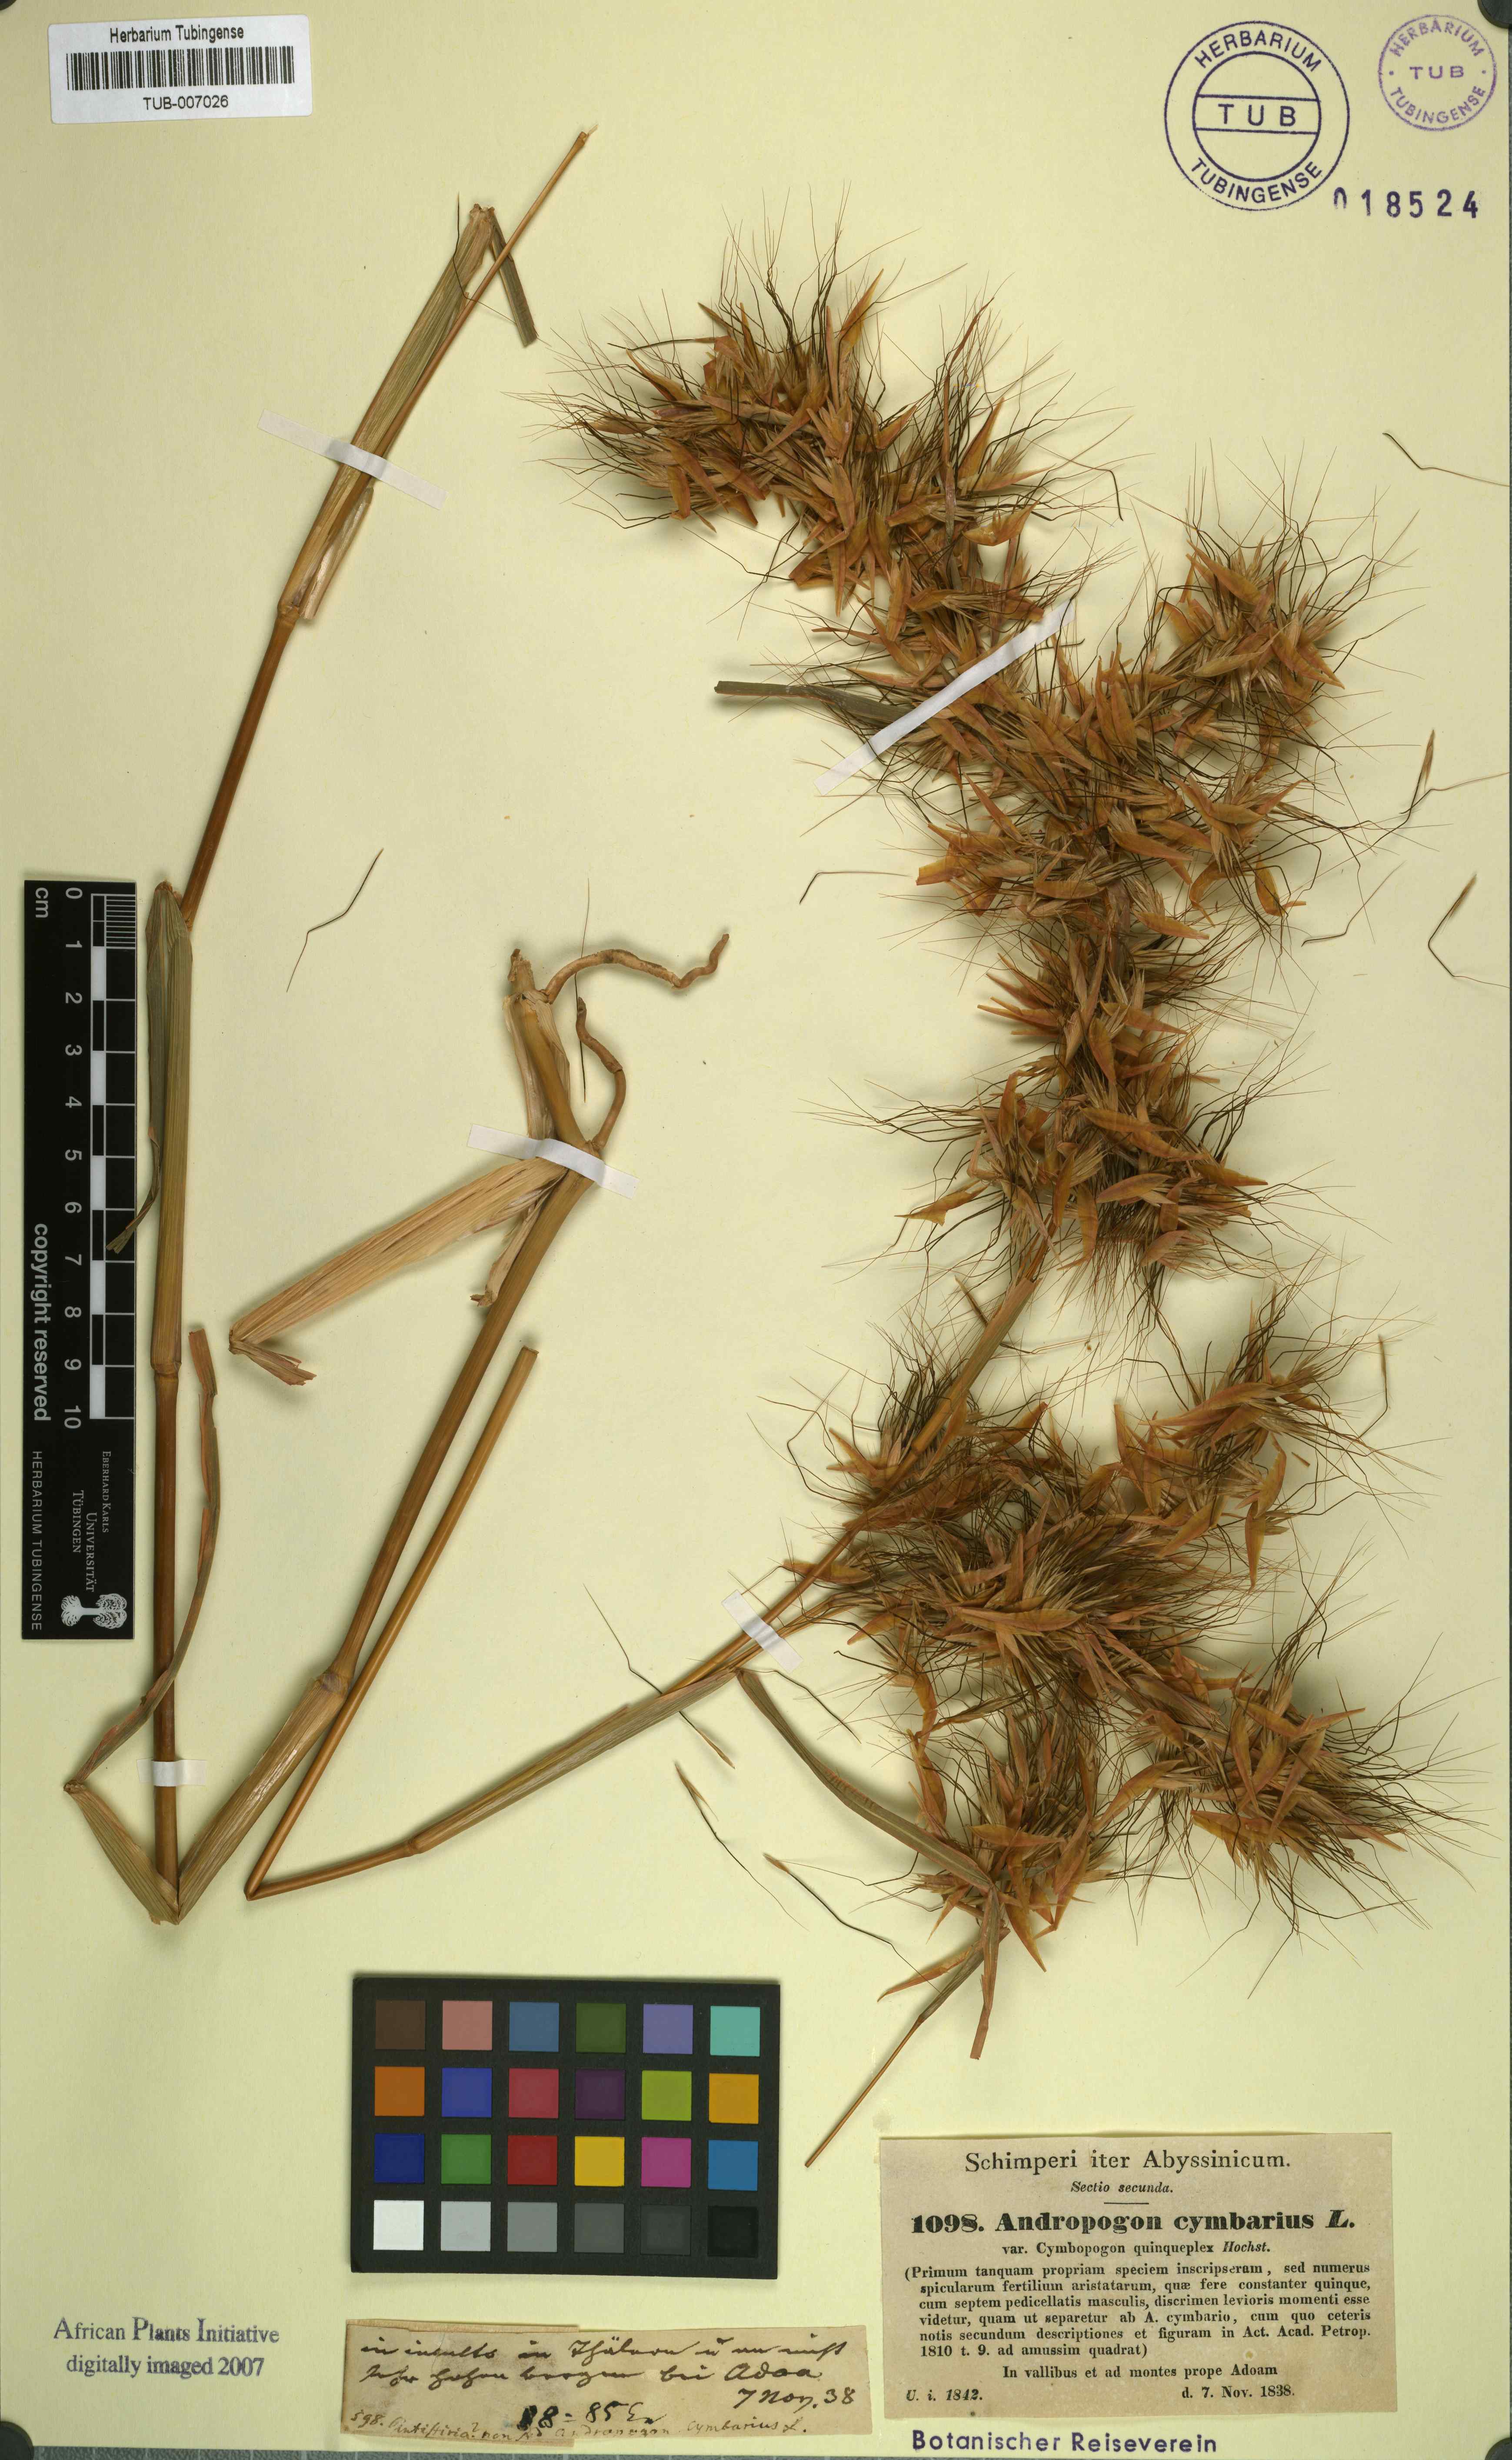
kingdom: Plantae
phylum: Tracheophyta
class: Liliopsida
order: Poales
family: Poaceae
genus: Hyparrhenia
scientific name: Hyparrhenia cymbaria
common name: Boat thatching grass
